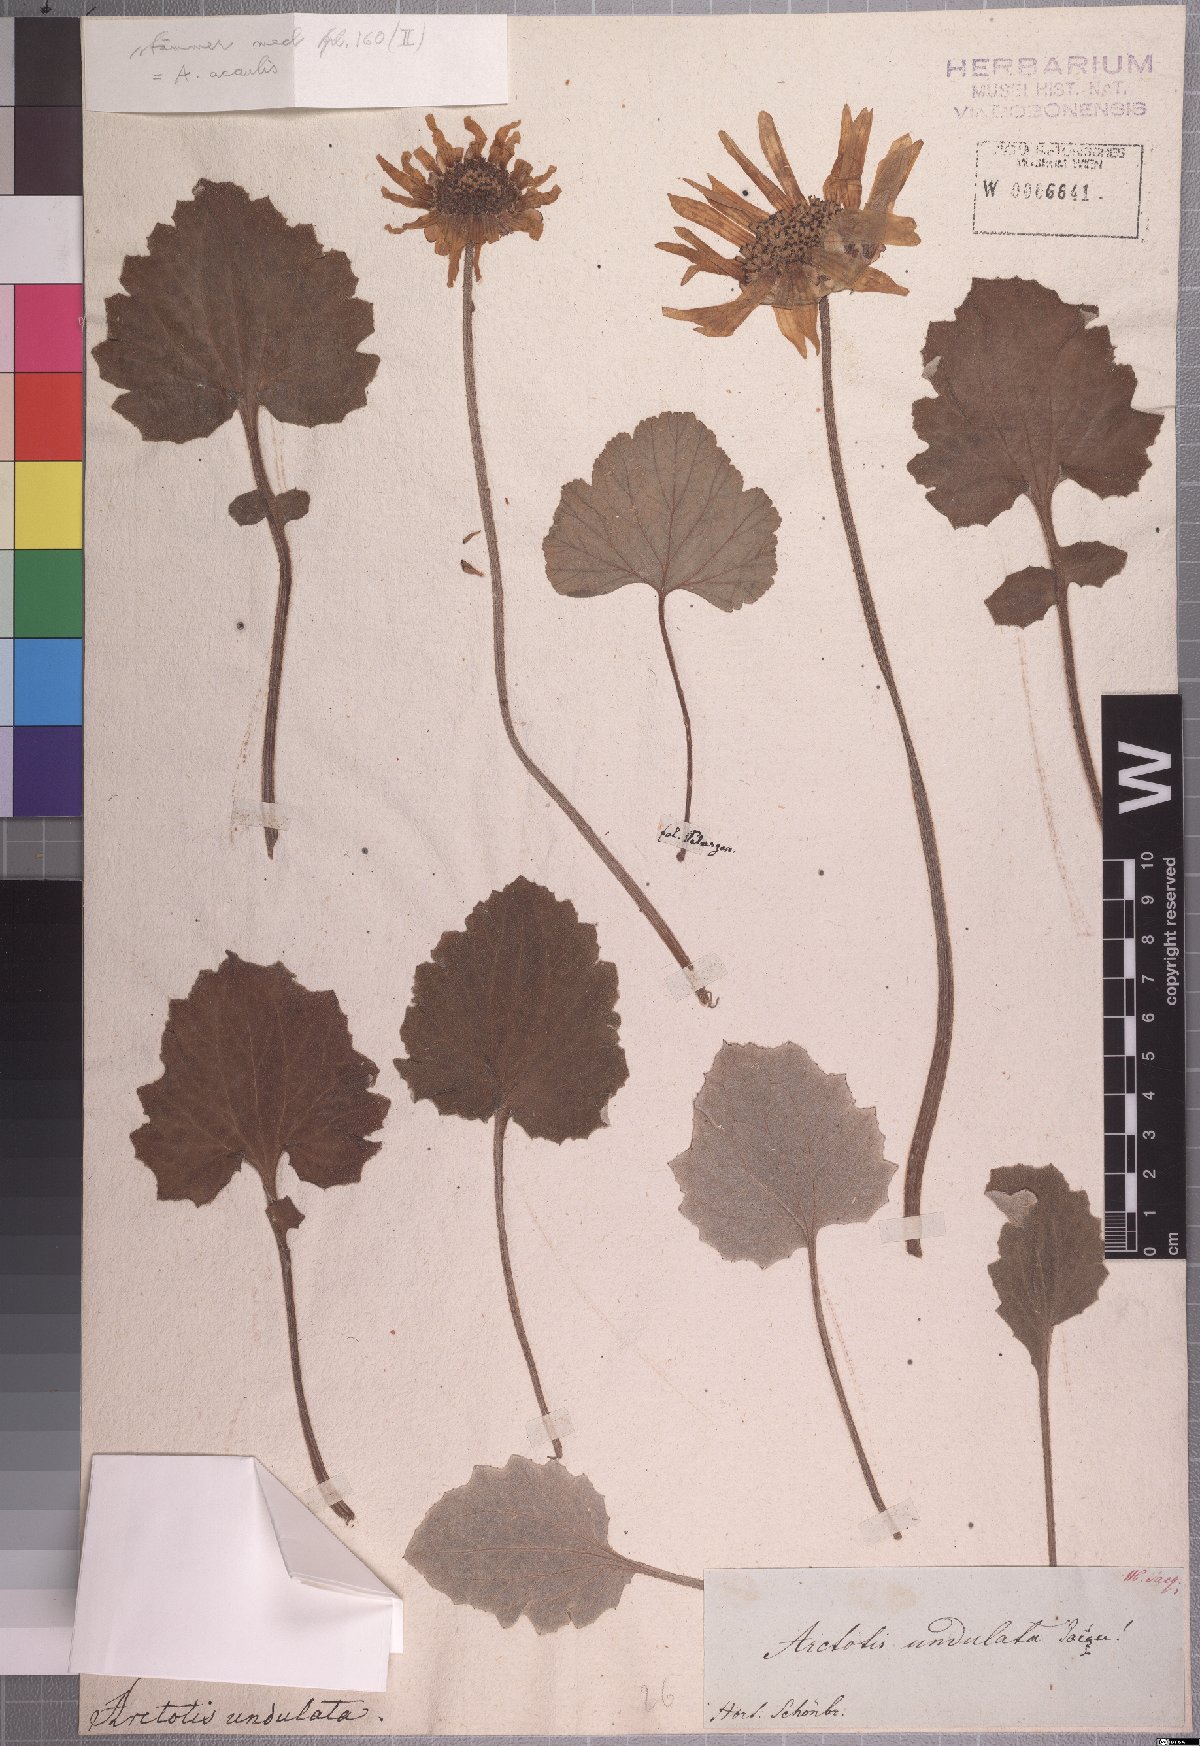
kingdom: Plantae
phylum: Tracheophyta
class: Magnoliopsida
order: Asterales
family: Asteraceae
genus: Arctotis
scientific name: Arctotis acaulis
